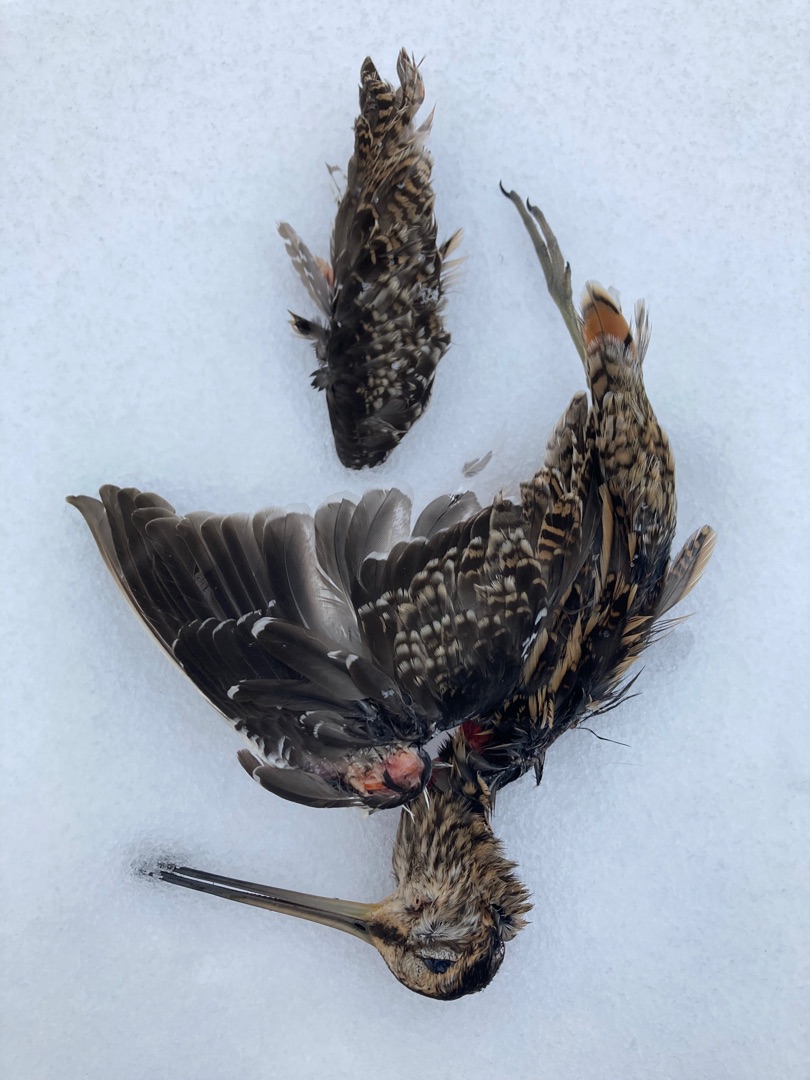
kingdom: Animalia
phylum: Chordata
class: Aves
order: Charadriiformes
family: Scolopacidae
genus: Gallinago
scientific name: Gallinago gallinago
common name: Dobbeltbekkasin
